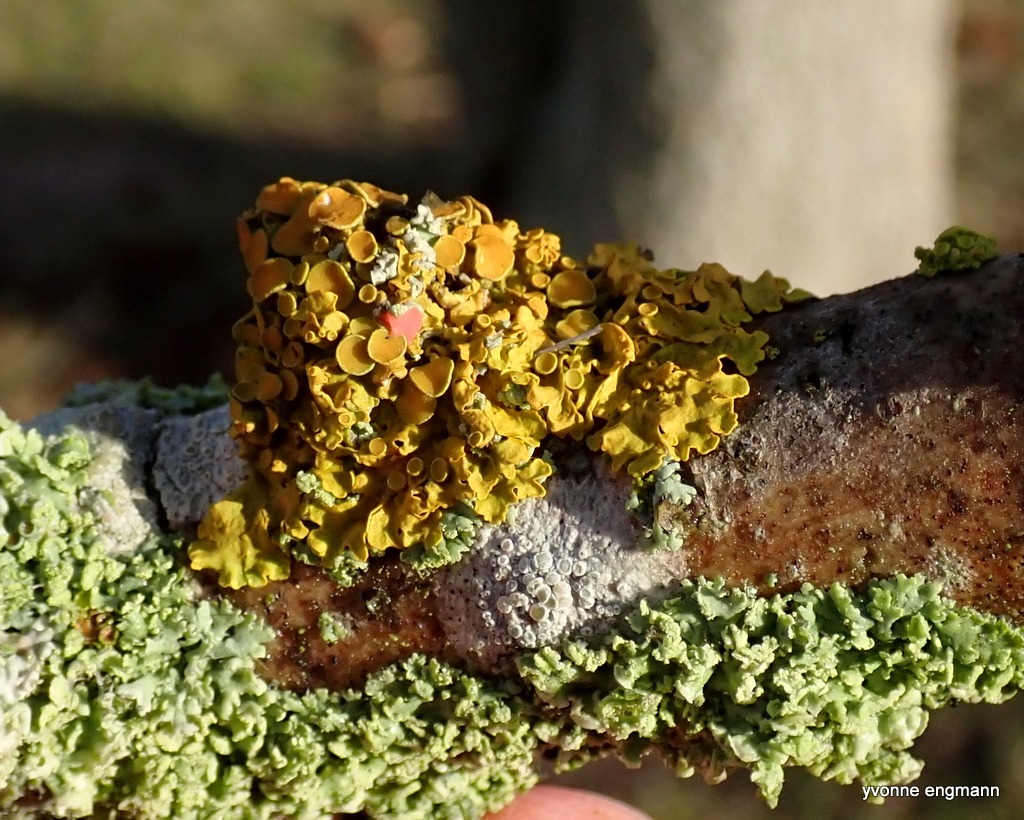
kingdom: Fungi
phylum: Ascomycota
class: Lecanoromycetes
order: Teloschistales
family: Teloschistaceae
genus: Xanthoria
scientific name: Xanthoria parietina
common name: Almindelig væggelav
